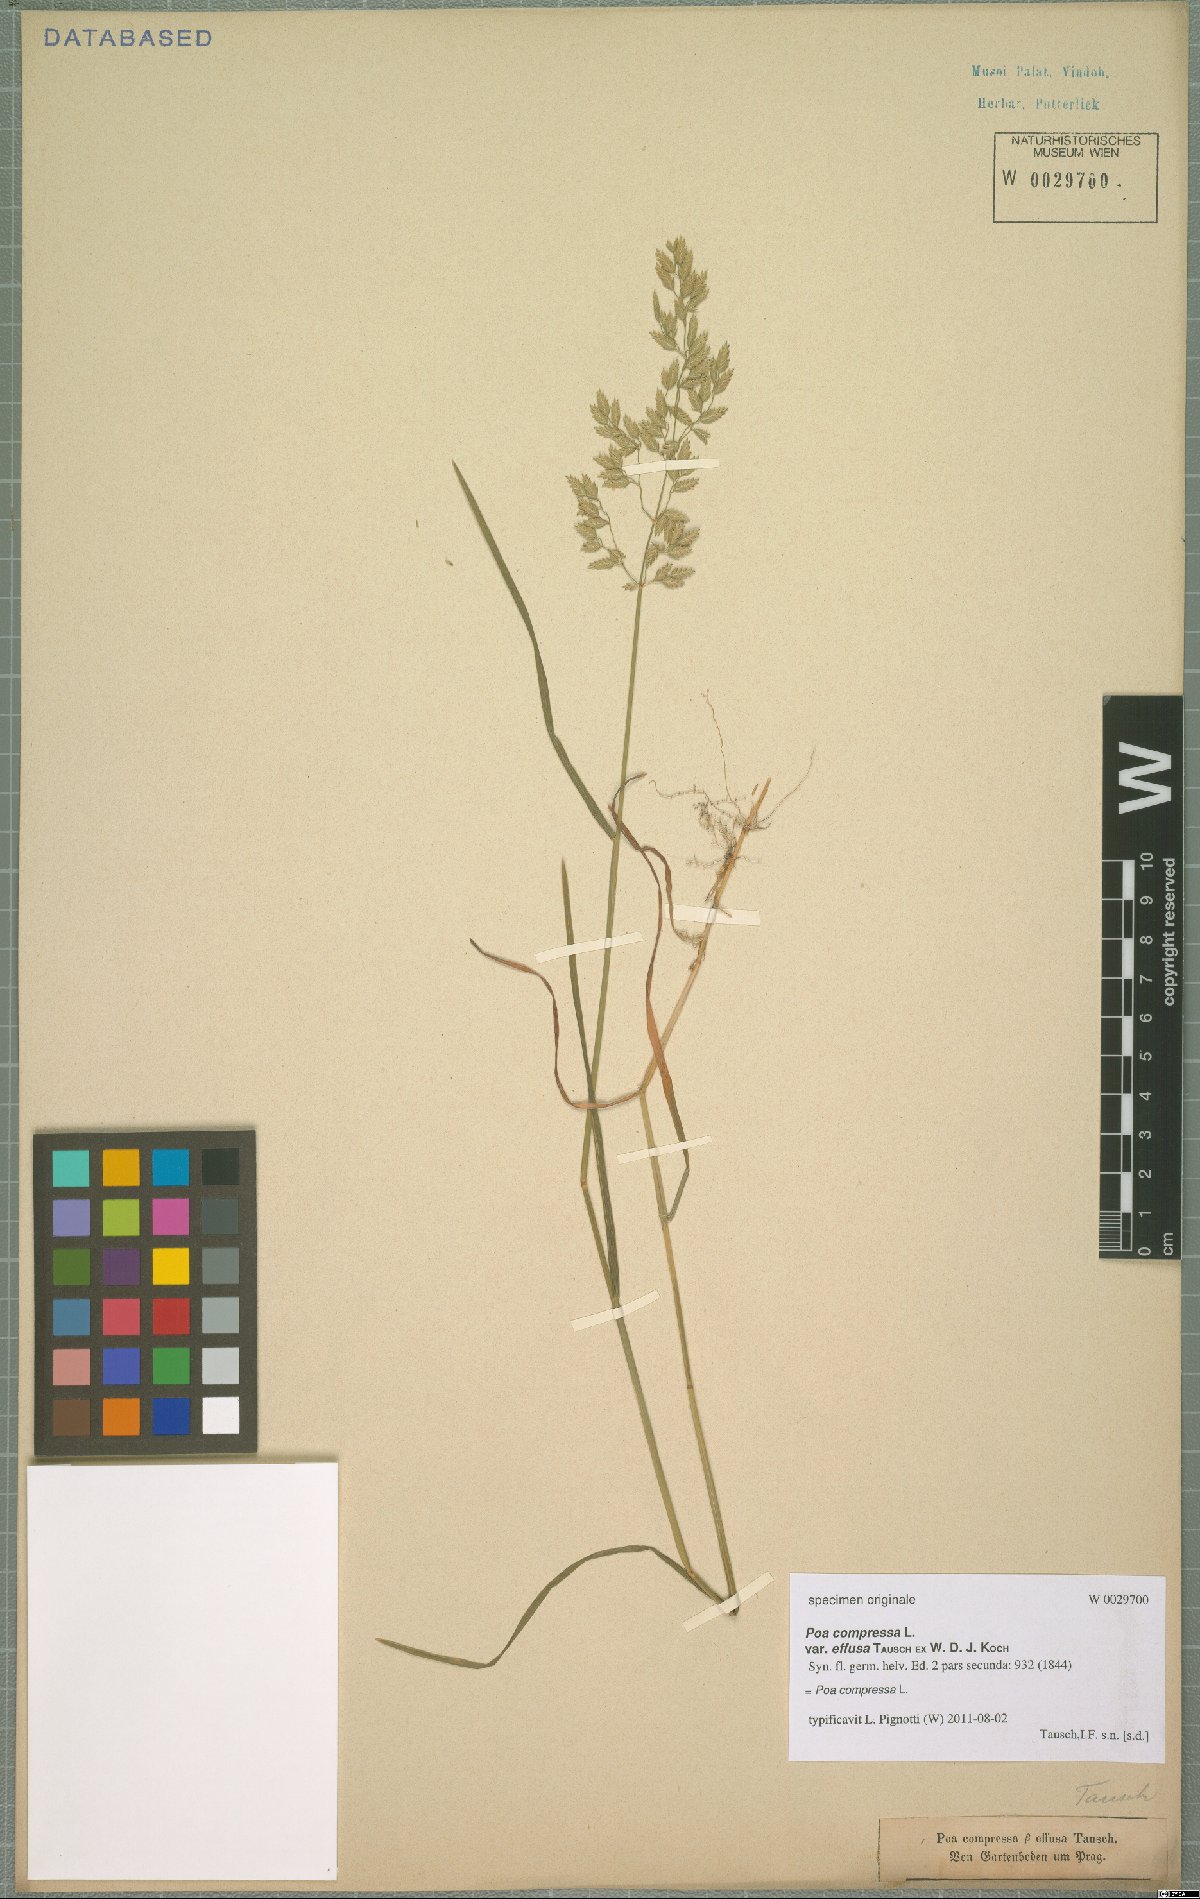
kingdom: Plantae
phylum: Tracheophyta
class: Liliopsida
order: Poales
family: Poaceae
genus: Poa
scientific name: Poa compressa
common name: Canada bluegrass
